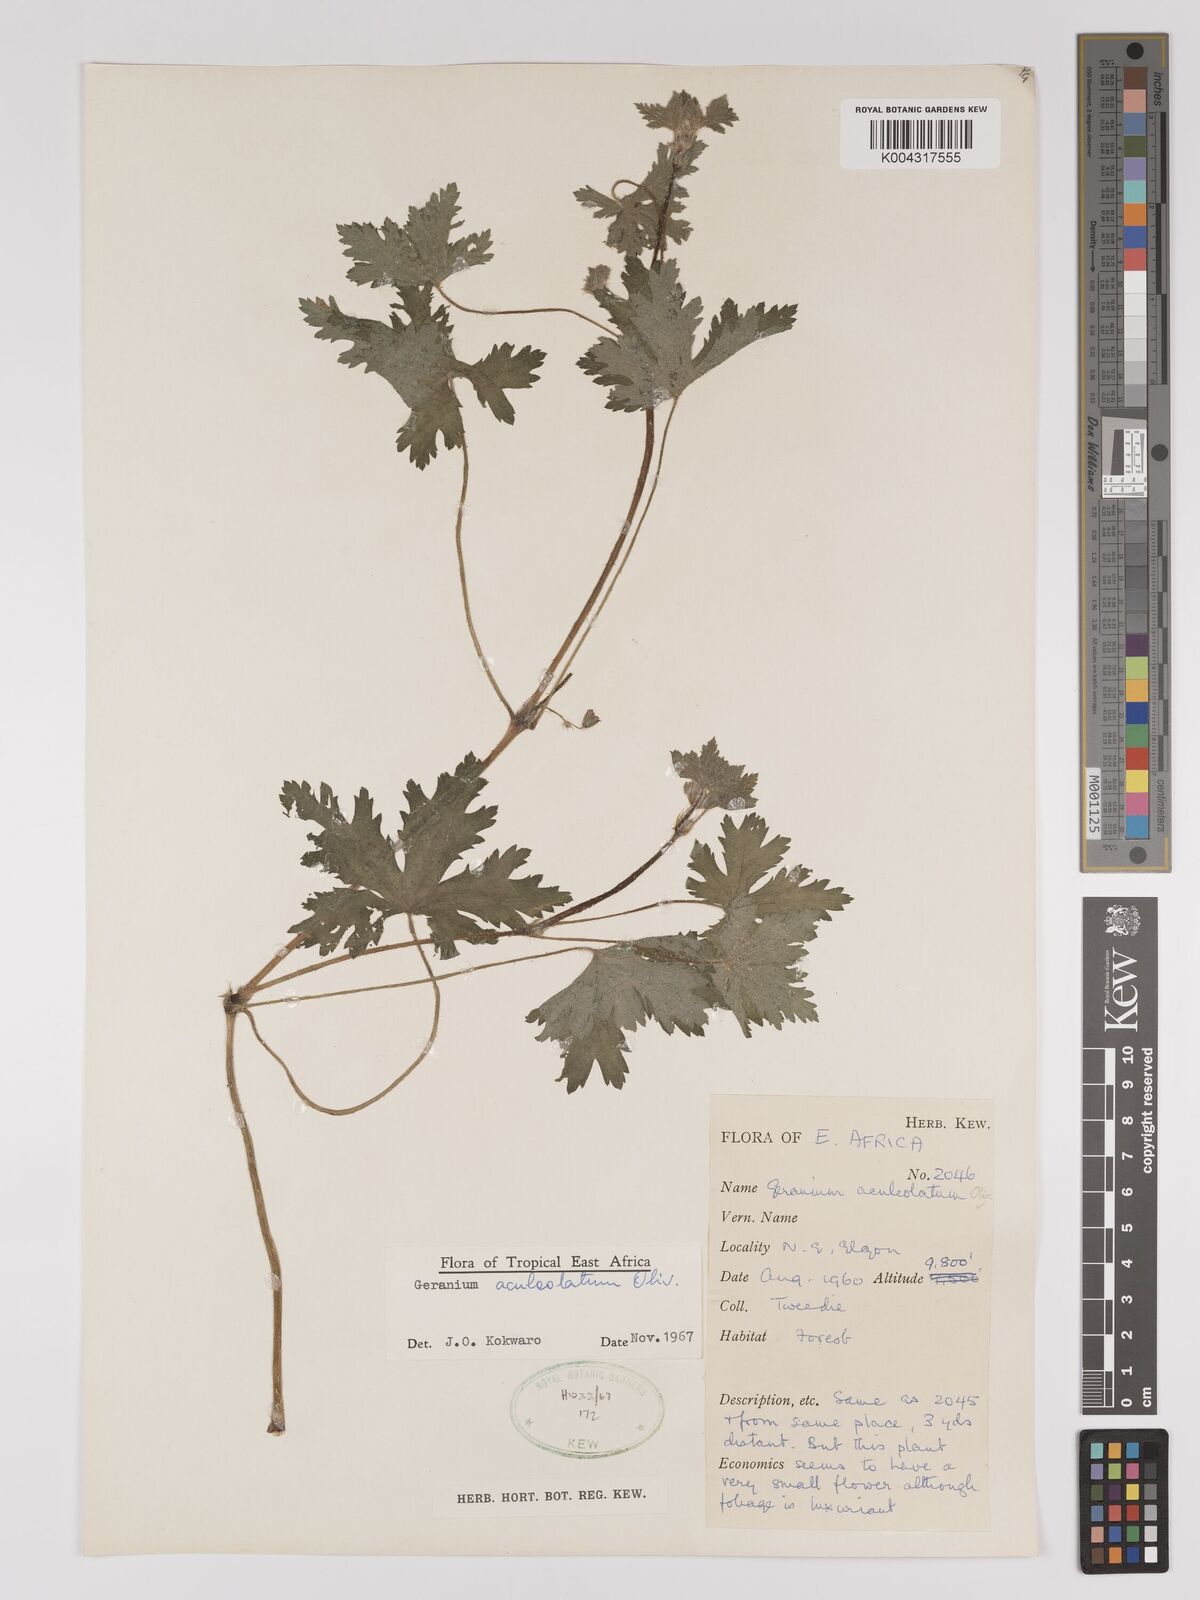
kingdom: Plantae
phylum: Tracheophyta
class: Magnoliopsida
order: Geraniales
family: Geraniaceae
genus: Geranium
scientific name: Geranium aculeolatum
